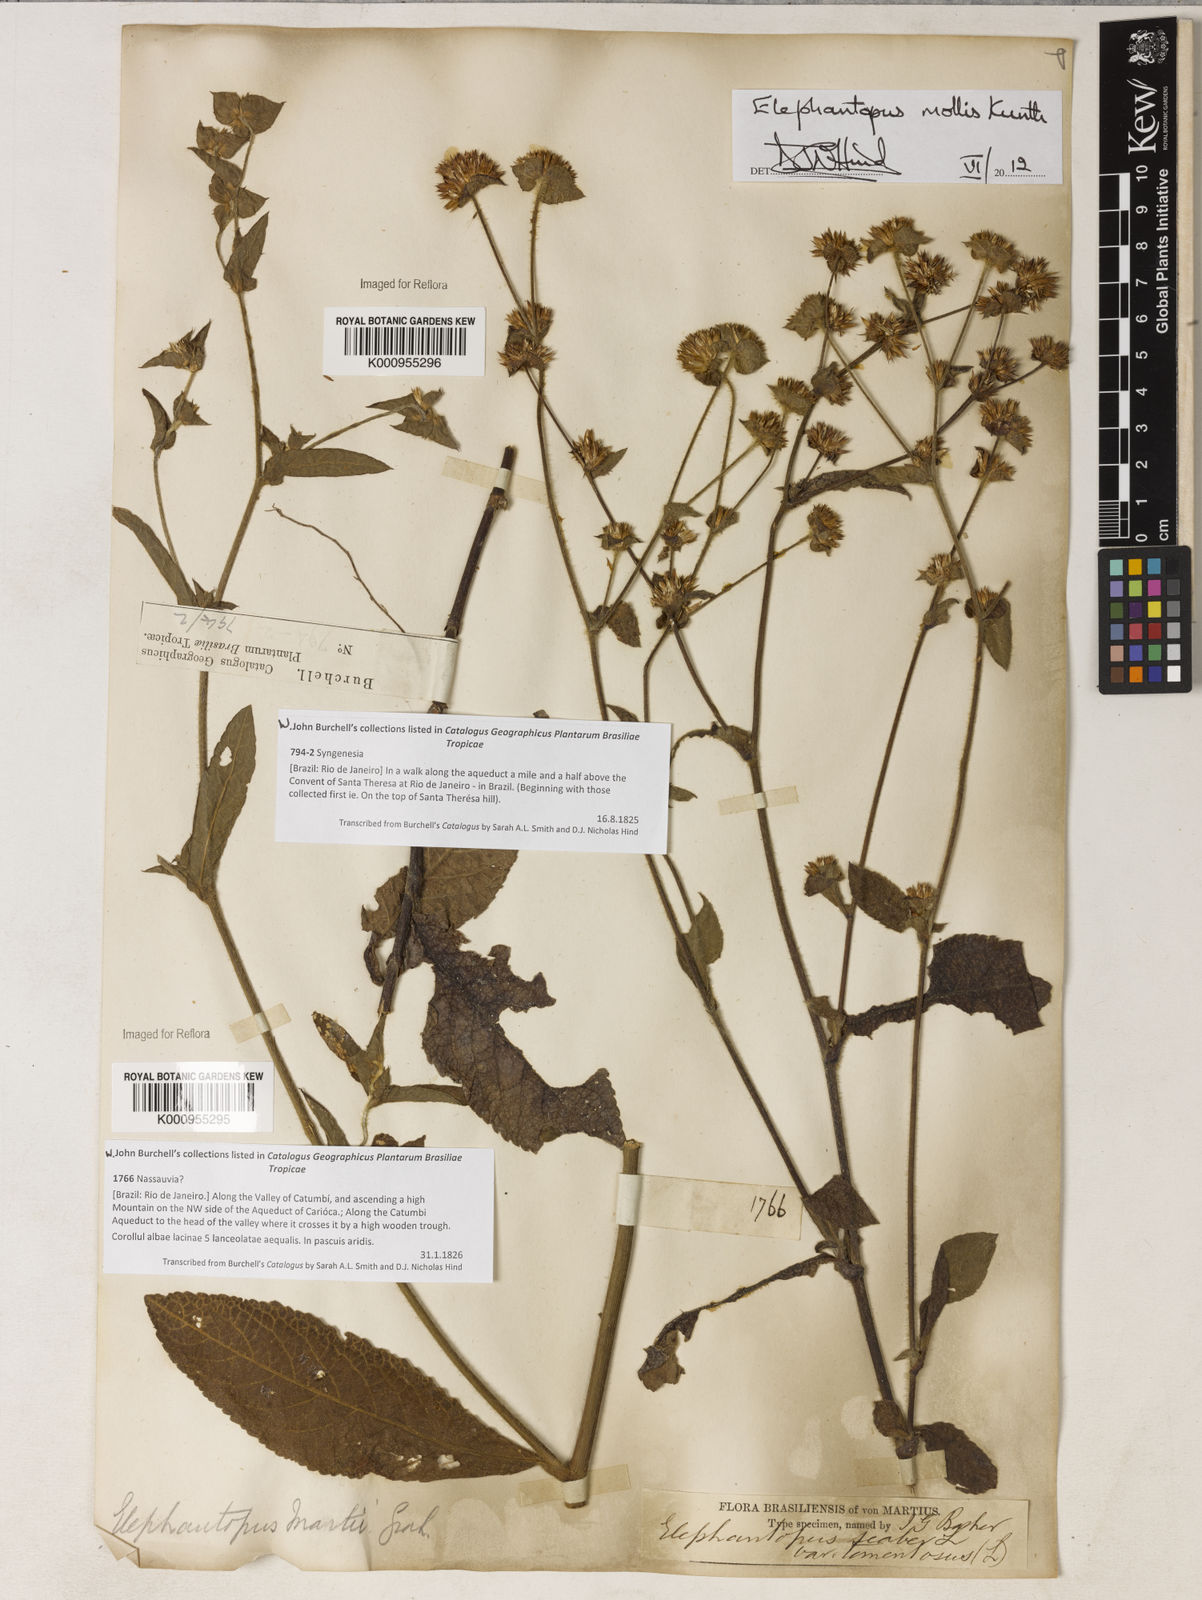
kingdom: Plantae
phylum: Tracheophyta
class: Magnoliopsida
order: Asterales
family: Asteraceae
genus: Elephantopus
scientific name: Elephantopus mollis
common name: Soft elephantsfoot
